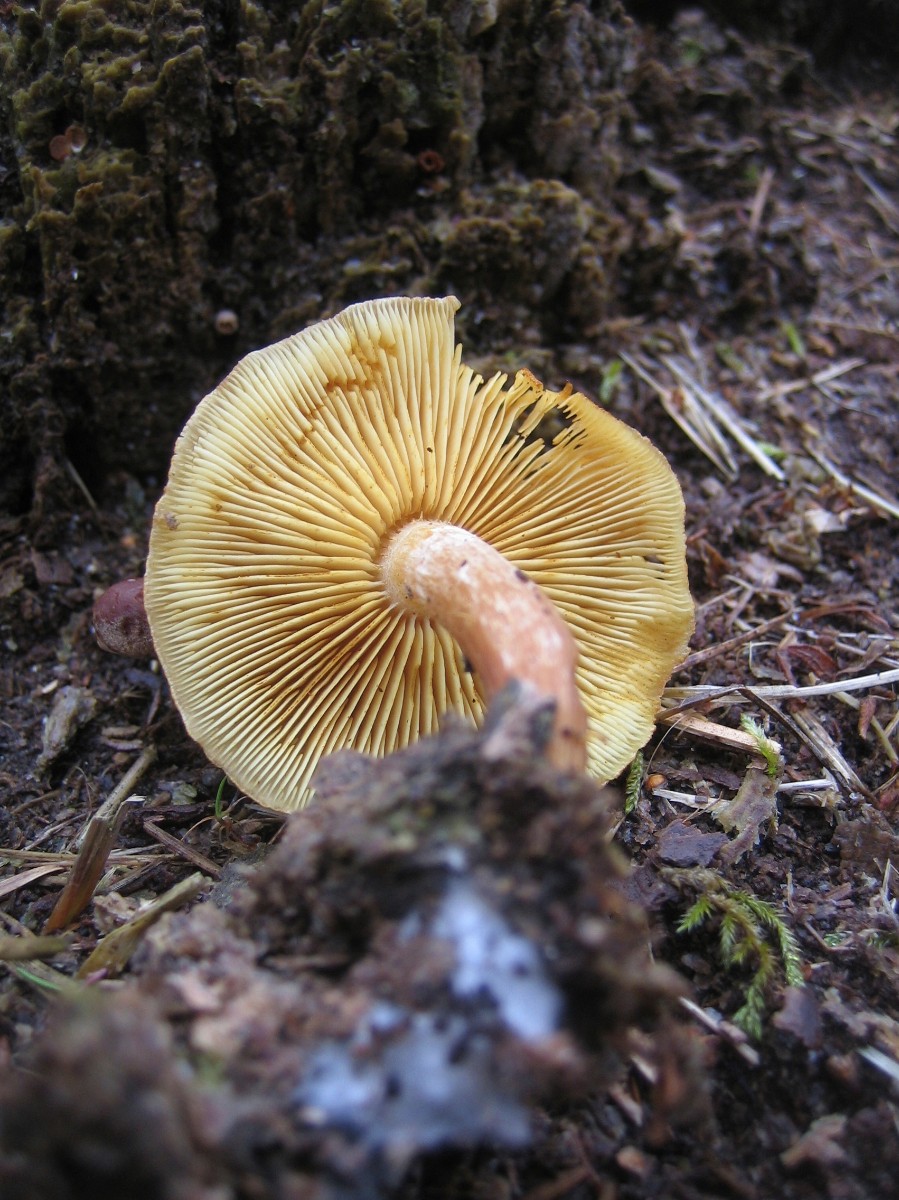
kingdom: Fungi
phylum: Basidiomycota
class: Agaricomycetes
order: Agaricales
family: Hymenogastraceae
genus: Gymnopilus
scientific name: Gymnopilus penetrans
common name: plettet flammehat
